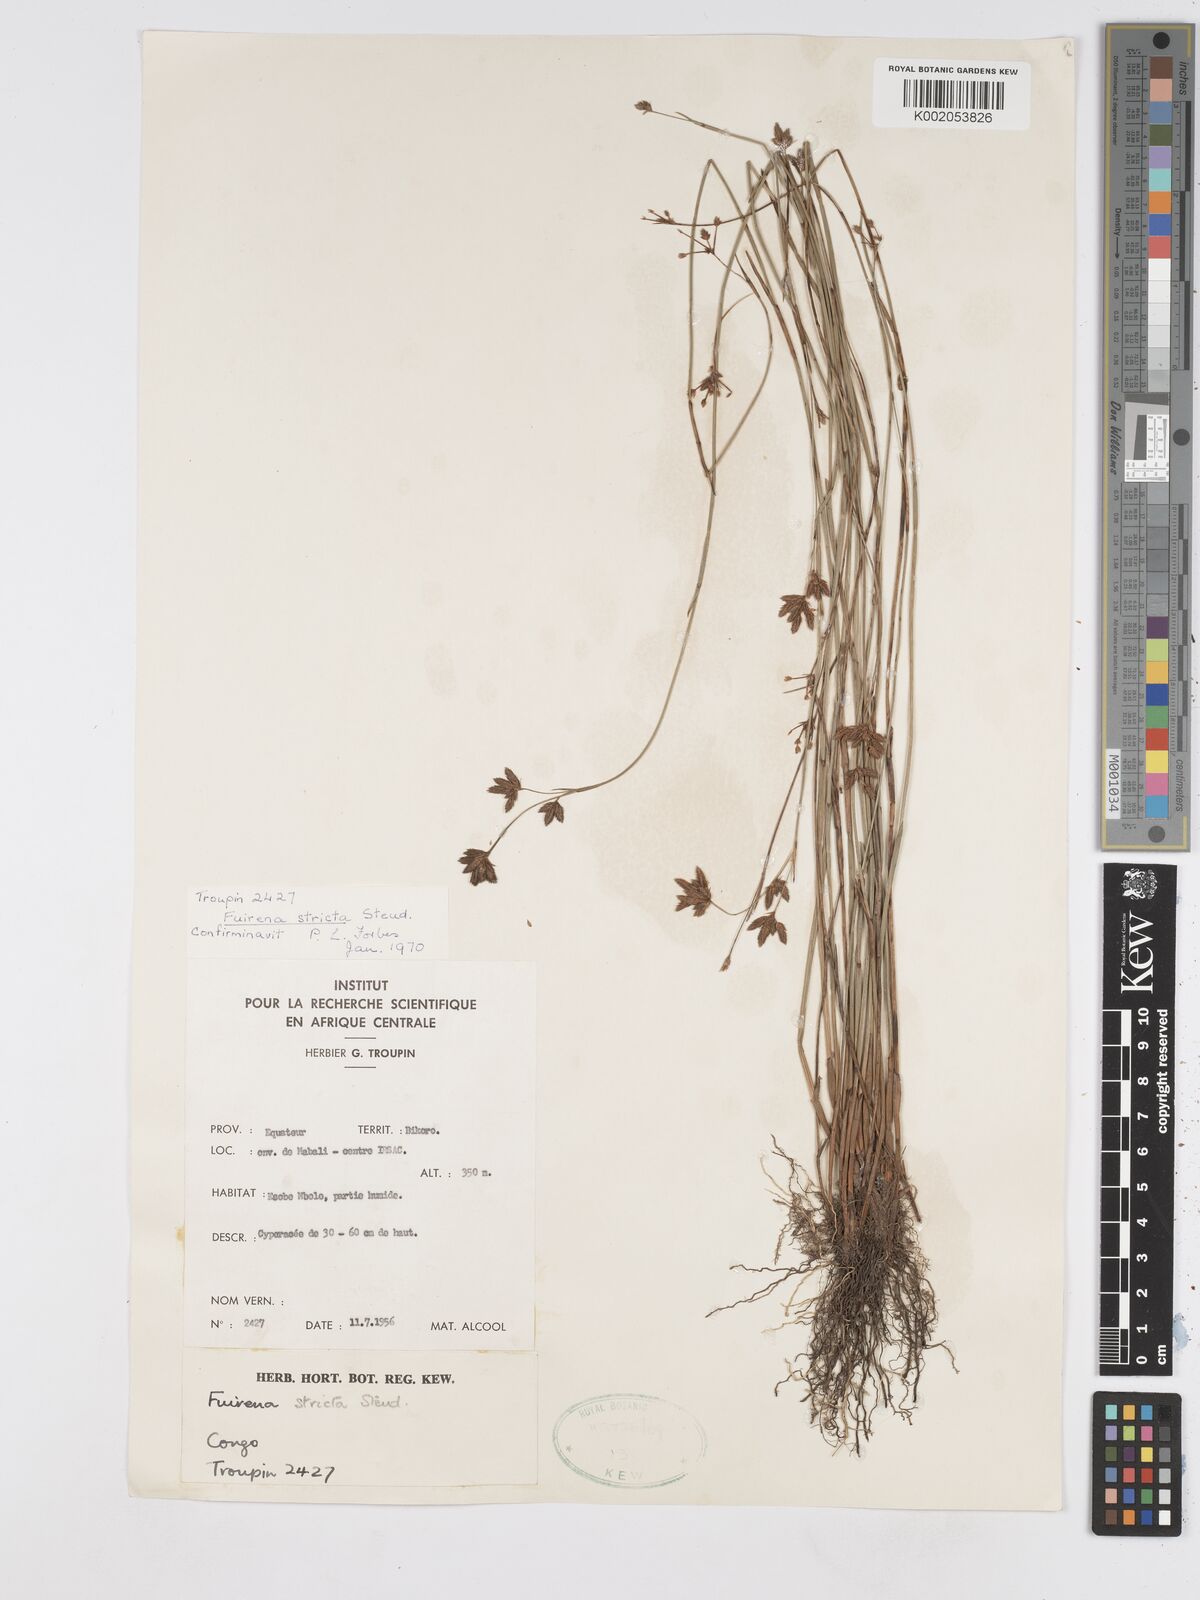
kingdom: Plantae
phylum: Tracheophyta
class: Liliopsida
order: Poales
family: Cyperaceae
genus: Fuirena
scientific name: Fuirena stricta
